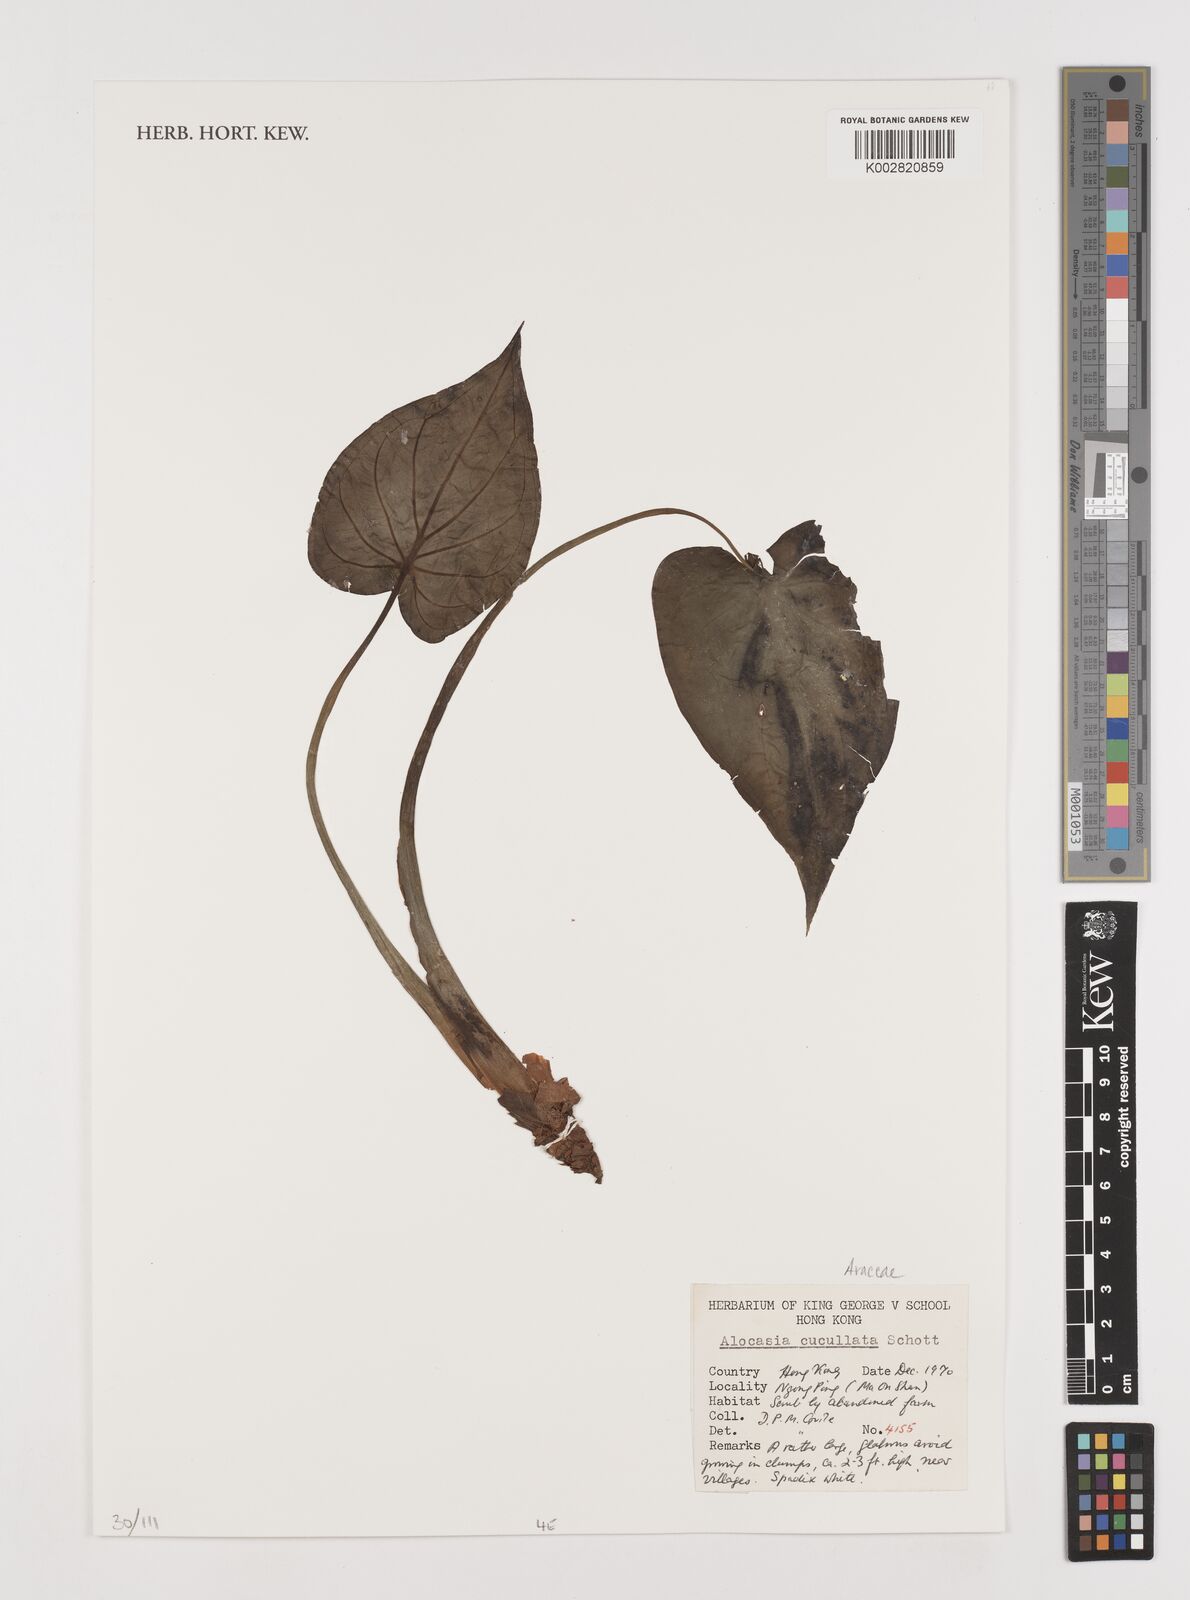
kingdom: Plantae
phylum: Tracheophyta
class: Liliopsida
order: Alismatales
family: Araceae
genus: Alocasia
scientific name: Alocasia cucullata
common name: Buddha's hand
